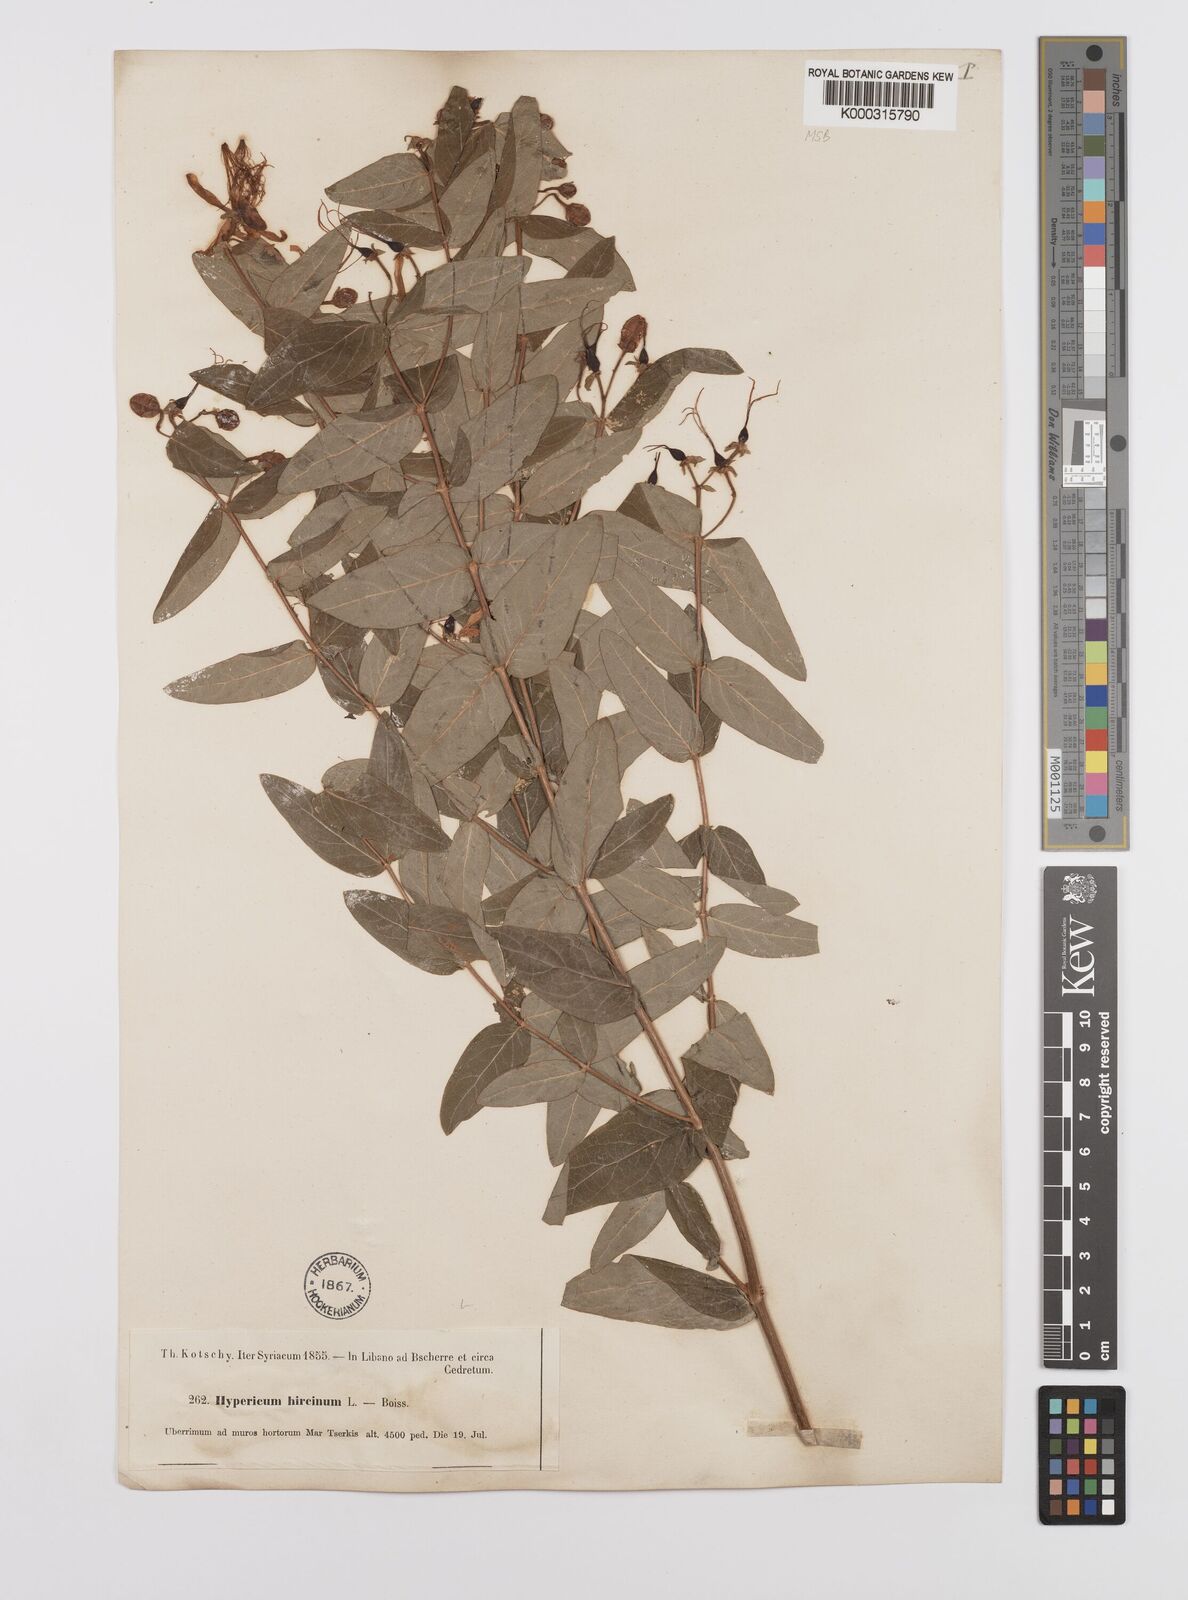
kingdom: Plantae
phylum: Tracheophyta
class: Magnoliopsida
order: Malpighiales
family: Hypericaceae
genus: Hypericum
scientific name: Hypericum hircinum
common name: Stinking tutsan
